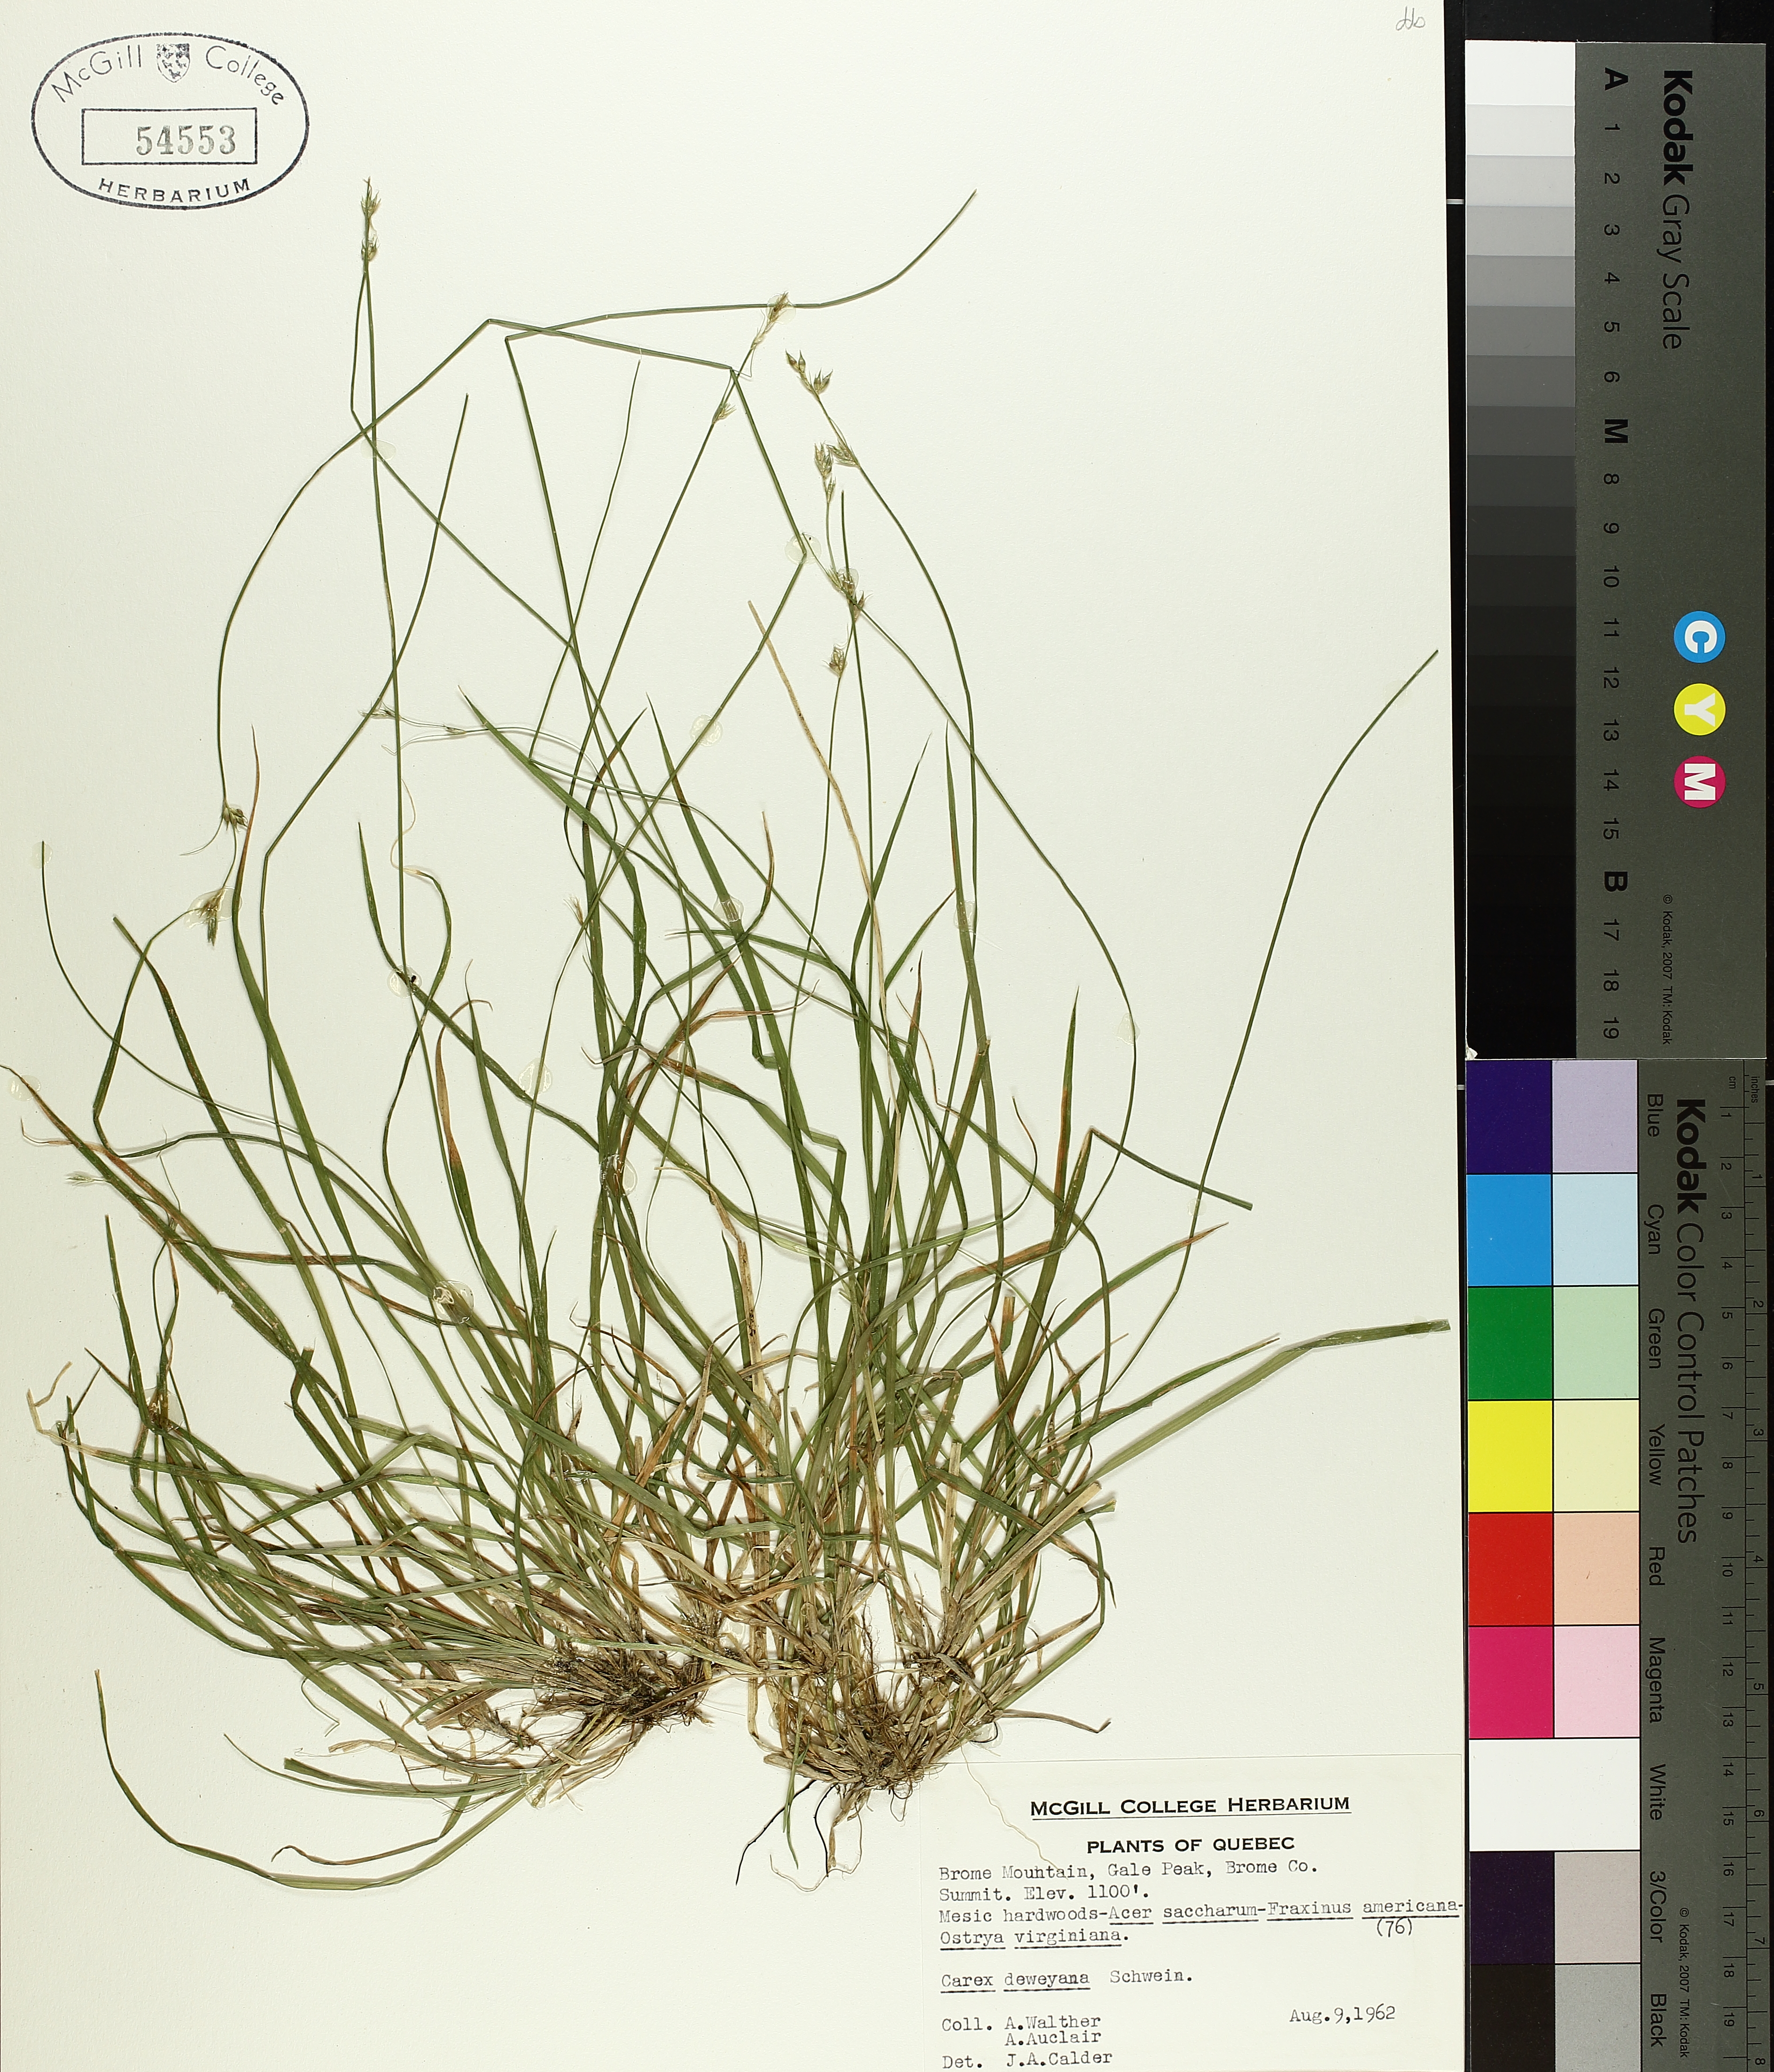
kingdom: Plantae
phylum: Tracheophyta
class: Liliopsida
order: Poales
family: Cyperaceae
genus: Carex
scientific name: Carex deweyana
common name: Dewey's sedge
